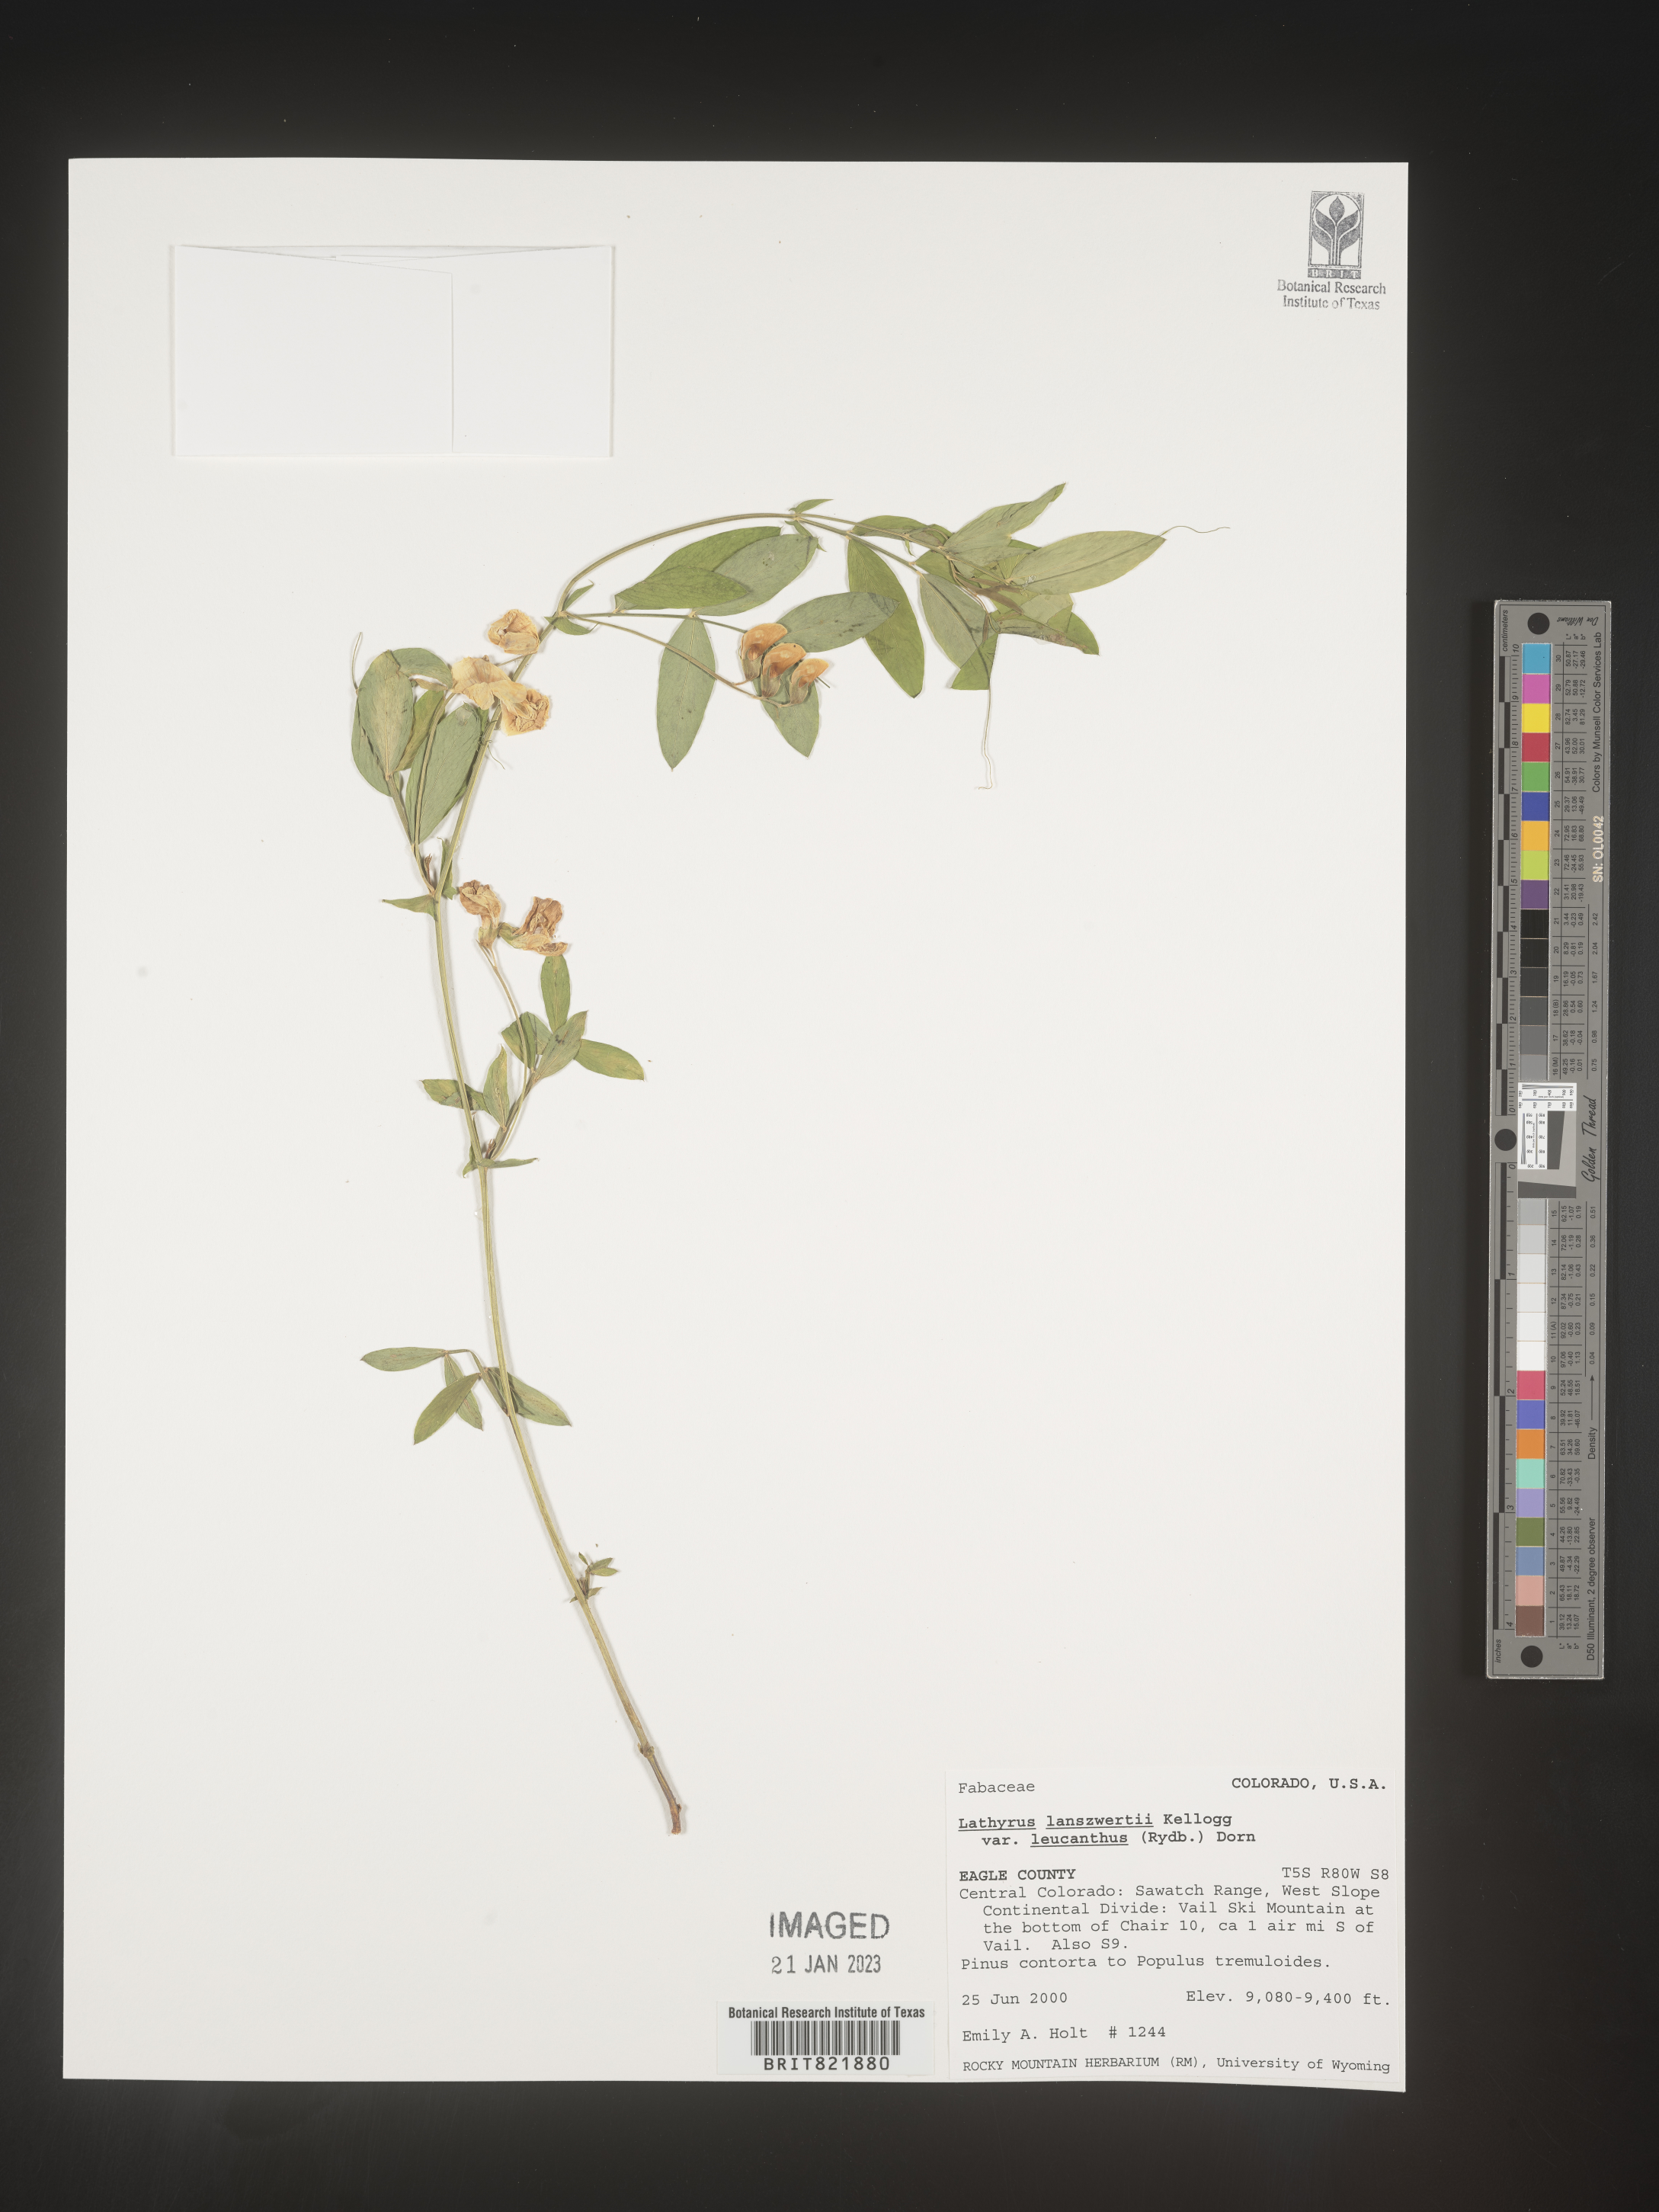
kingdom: Plantae
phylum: Tracheophyta
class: Magnoliopsida
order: Fabales
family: Fabaceae
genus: Lathyrus
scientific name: Lathyrus
